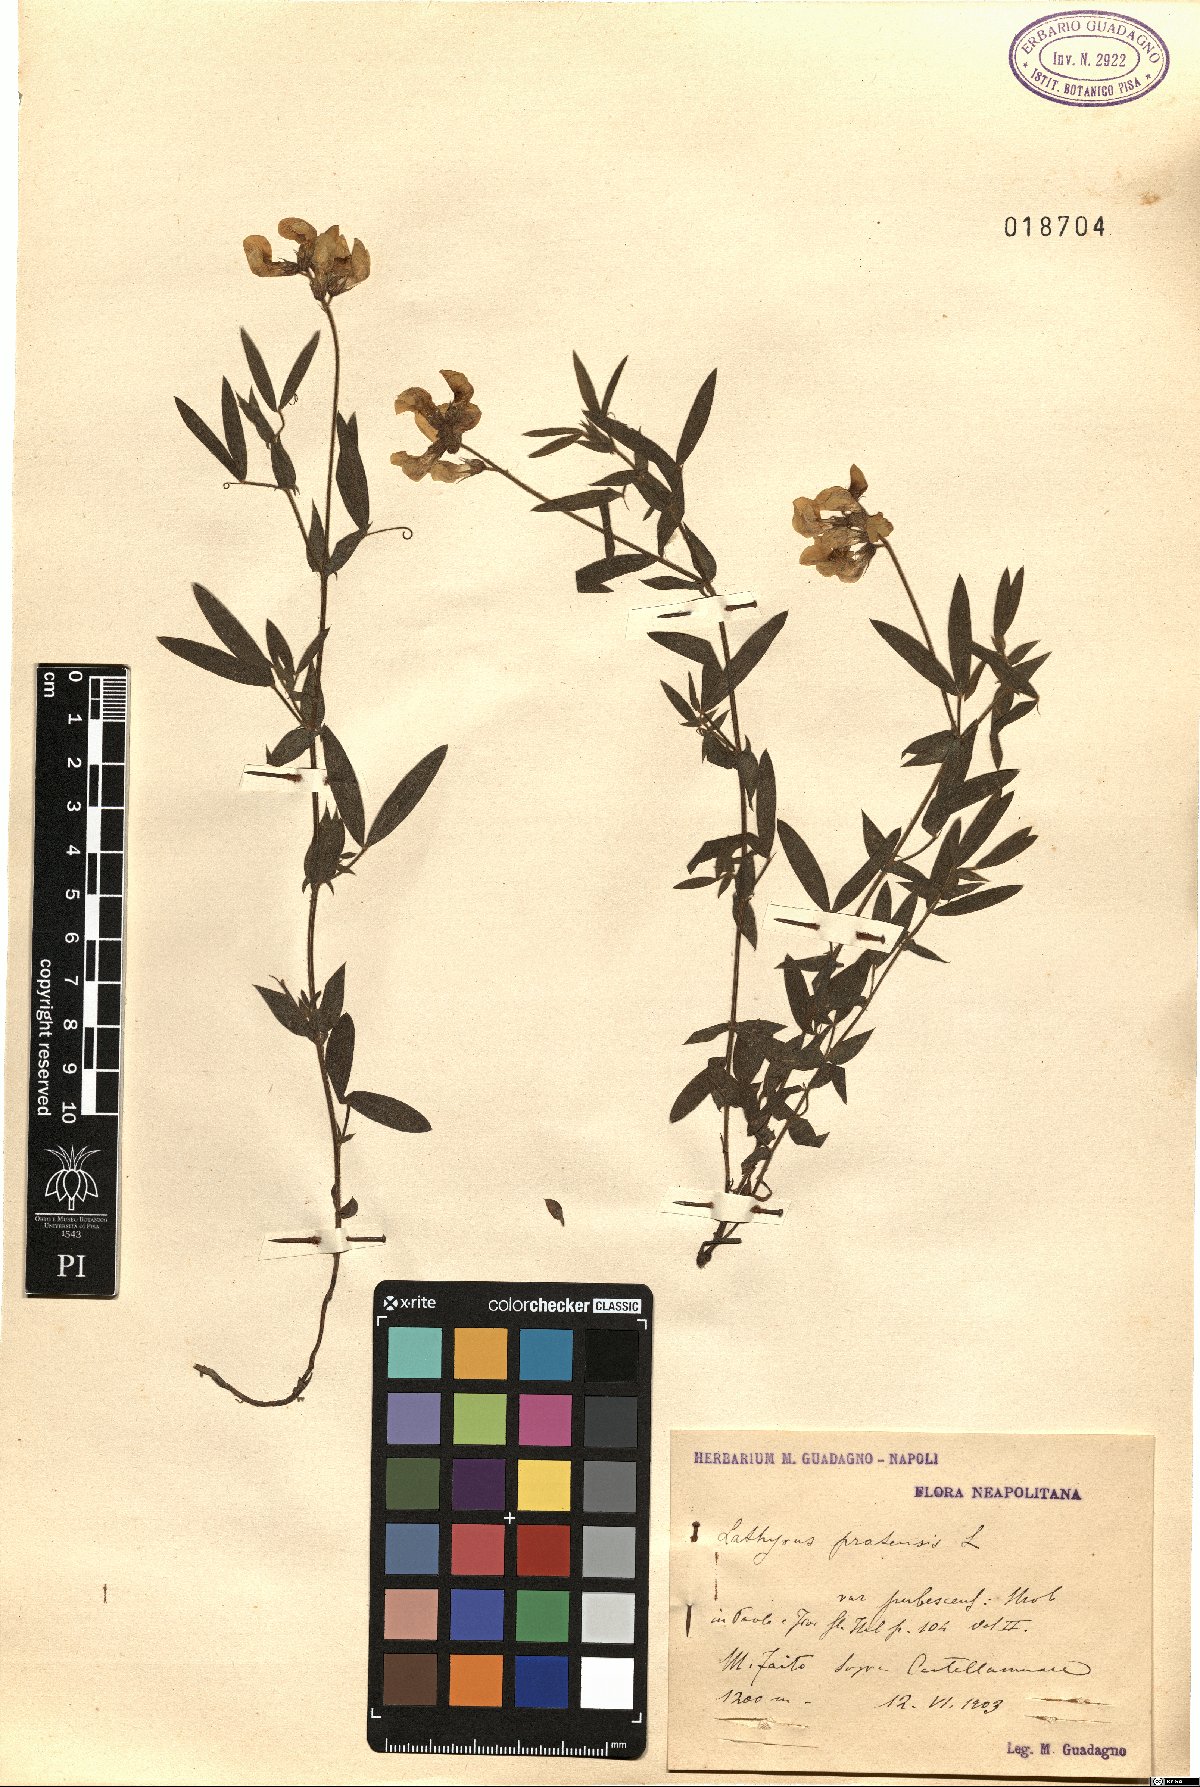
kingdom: Plantae
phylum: Tracheophyta
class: Magnoliopsida
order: Fabales
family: Fabaceae
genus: Lathyrus
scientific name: Lathyrus pratensis
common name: Meadow vetchling
